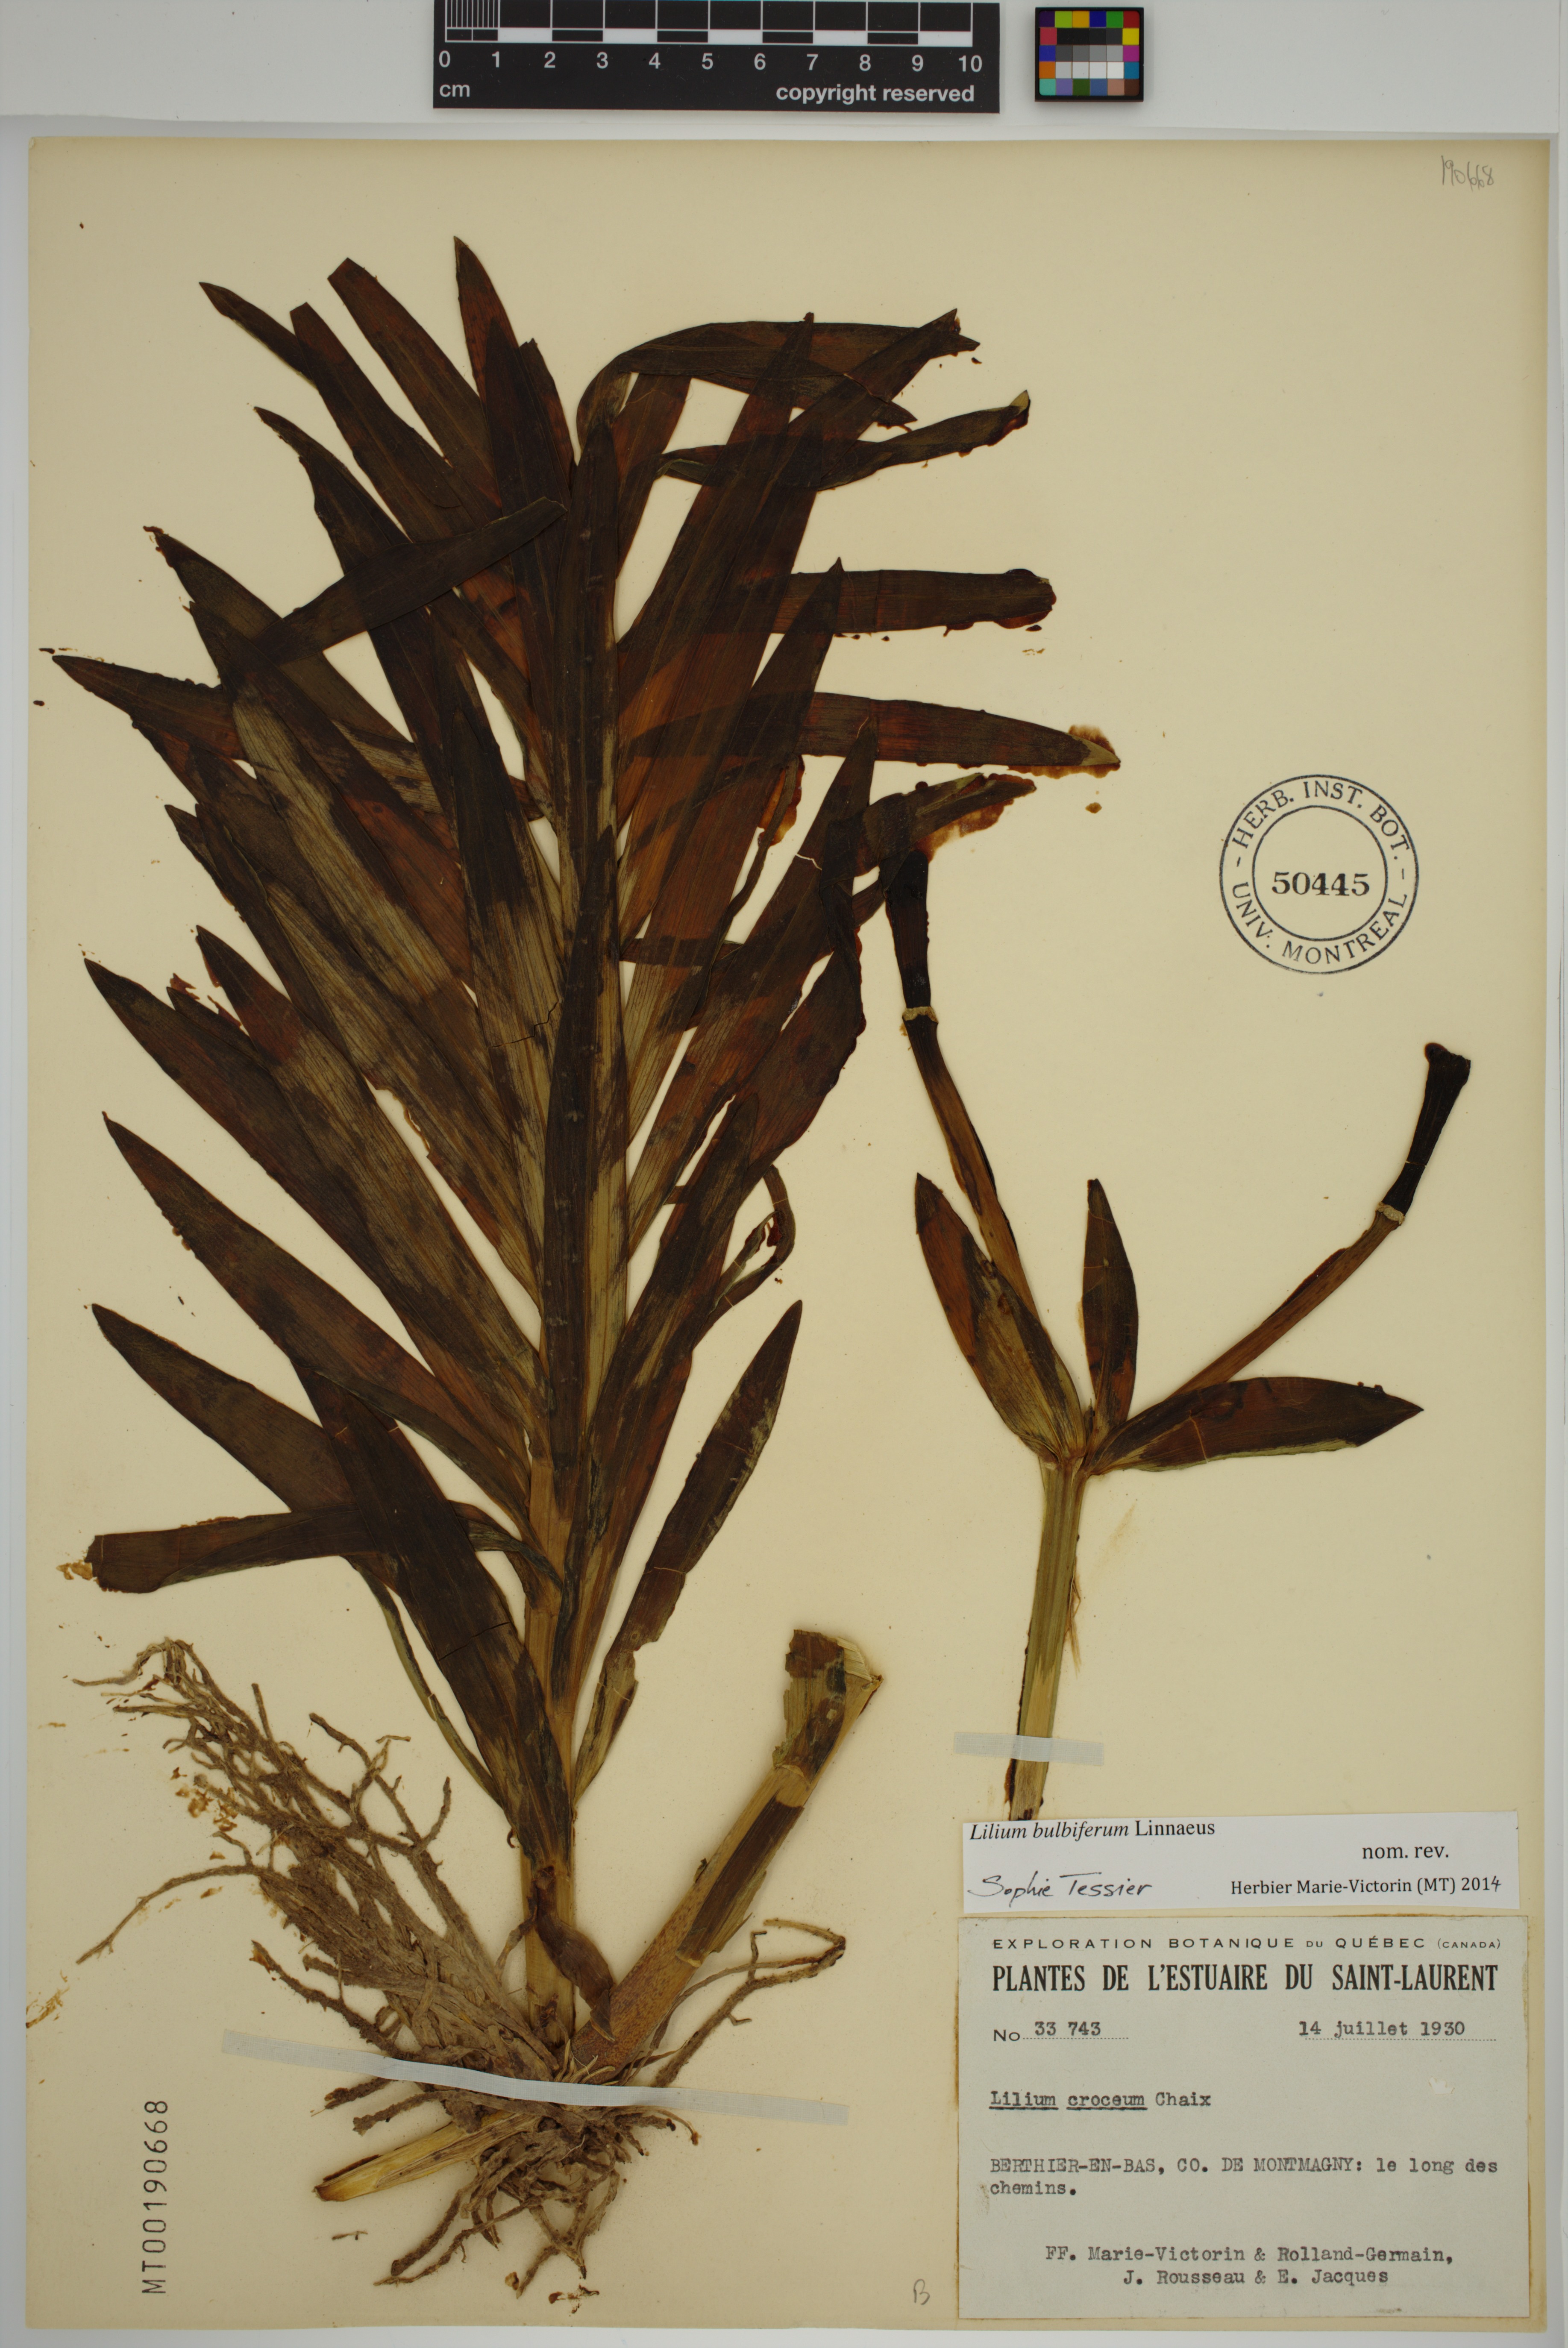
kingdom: Plantae
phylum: Tracheophyta
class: Liliopsida
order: Liliales
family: Liliaceae
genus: Lilium
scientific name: Lilium bulbiferum
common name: Orange lily
